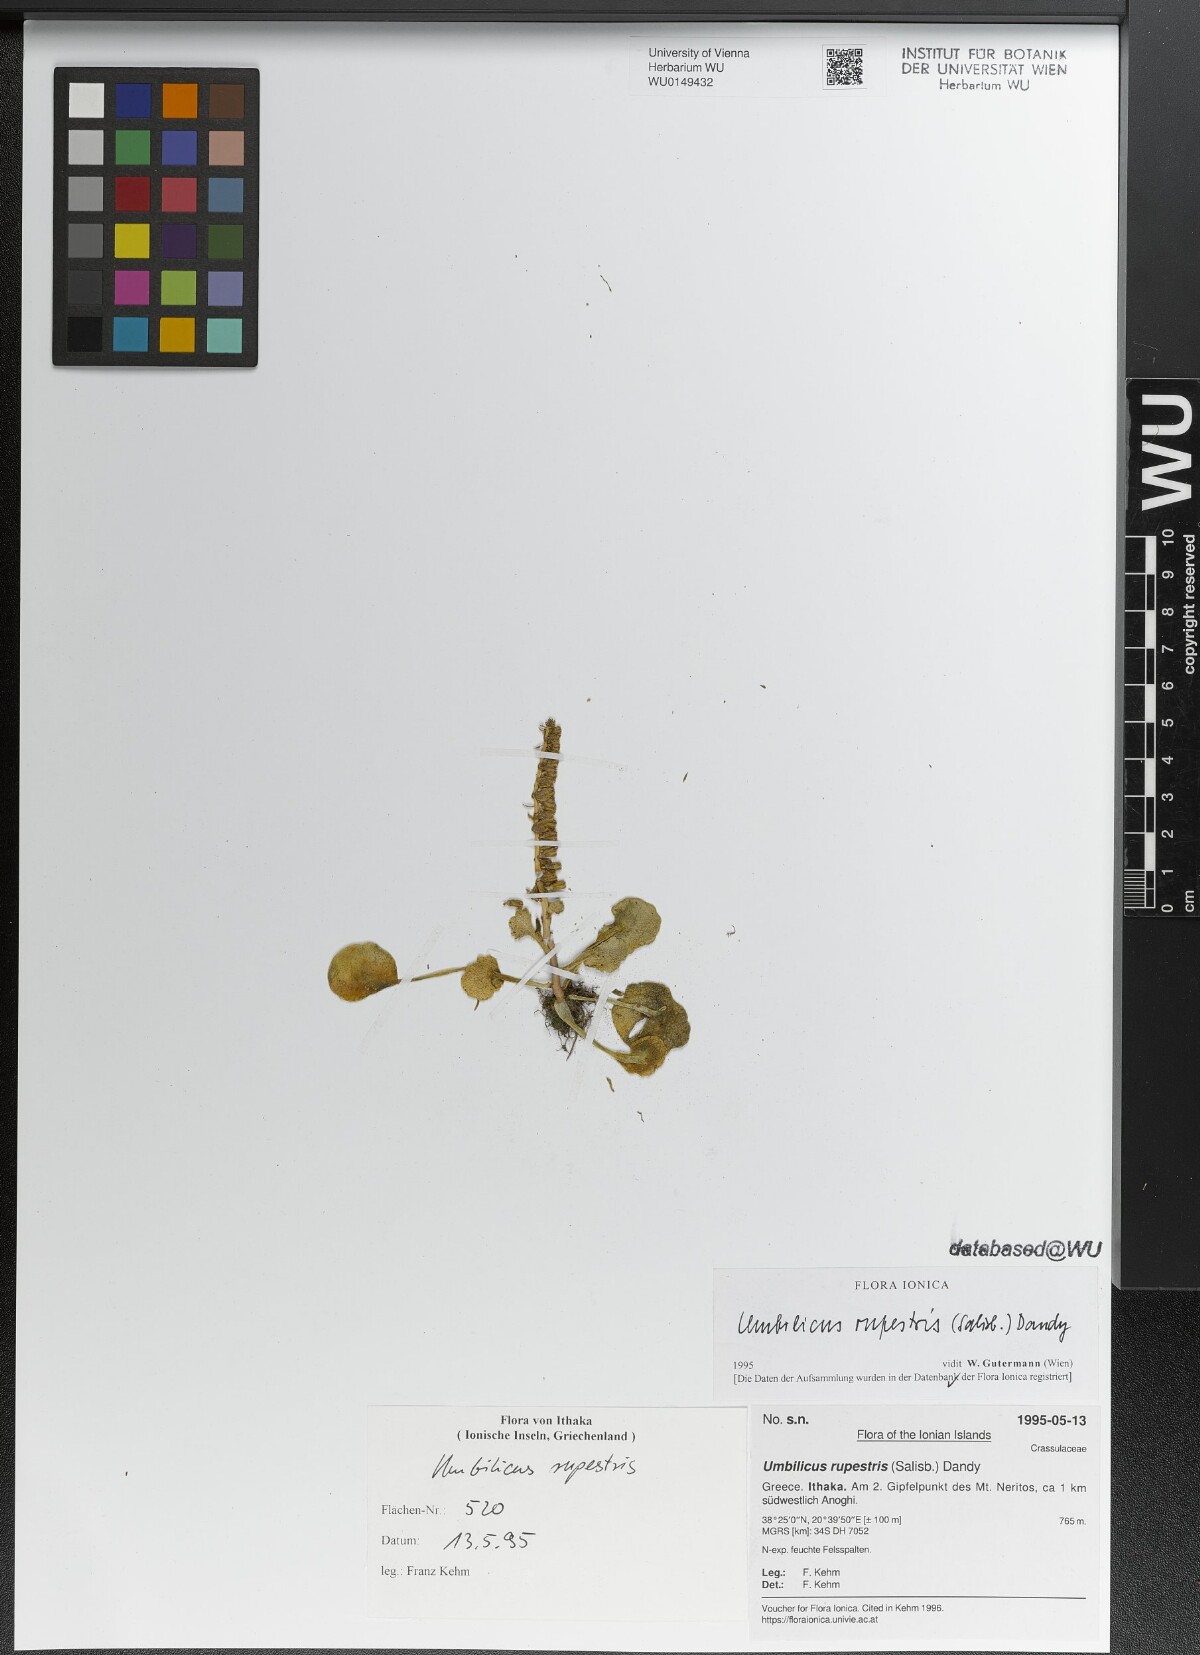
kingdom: Plantae
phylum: Tracheophyta
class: Magnoliopsida
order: Saxifragales
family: Crassulaceae
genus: Umbilicus
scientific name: Umbilicus rupestris
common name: Navelwort
